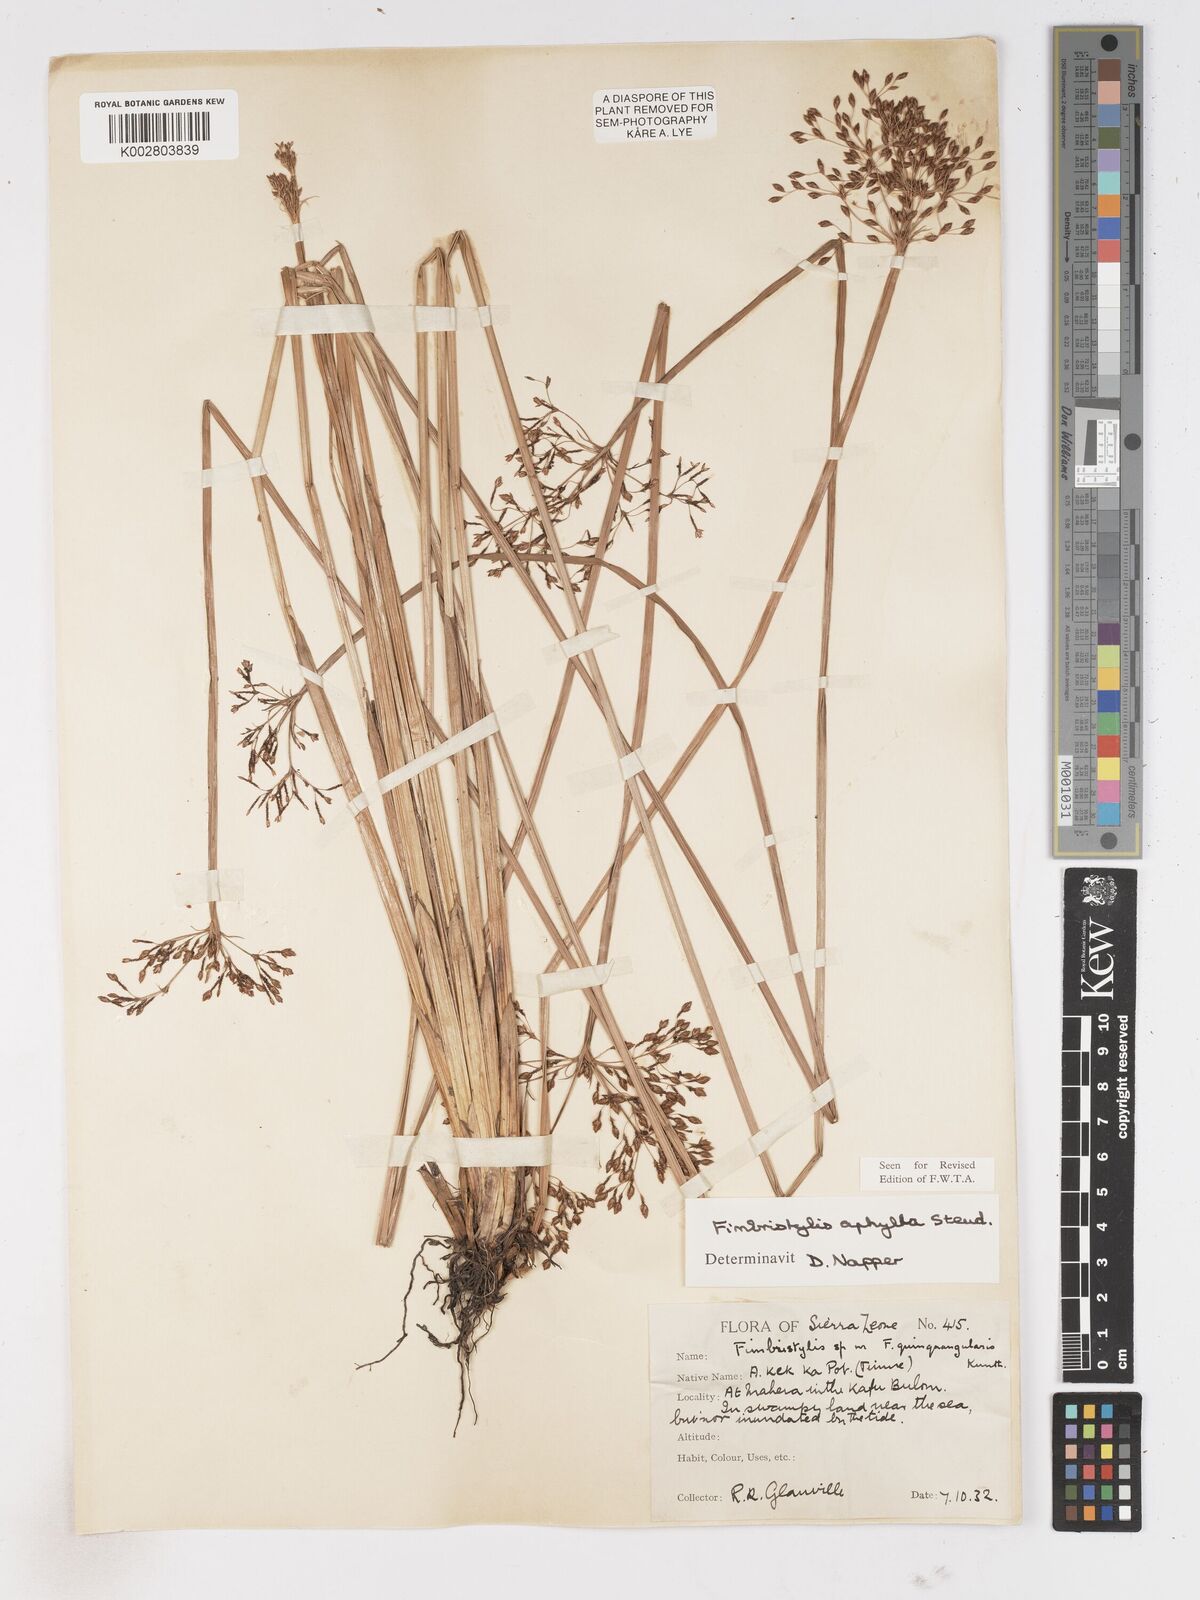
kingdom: Plantae
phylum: Tracheophyta
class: Liliopsida
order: Poales
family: Cyperaceae
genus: Fimbristylis
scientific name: Fimbristylis aphylla
